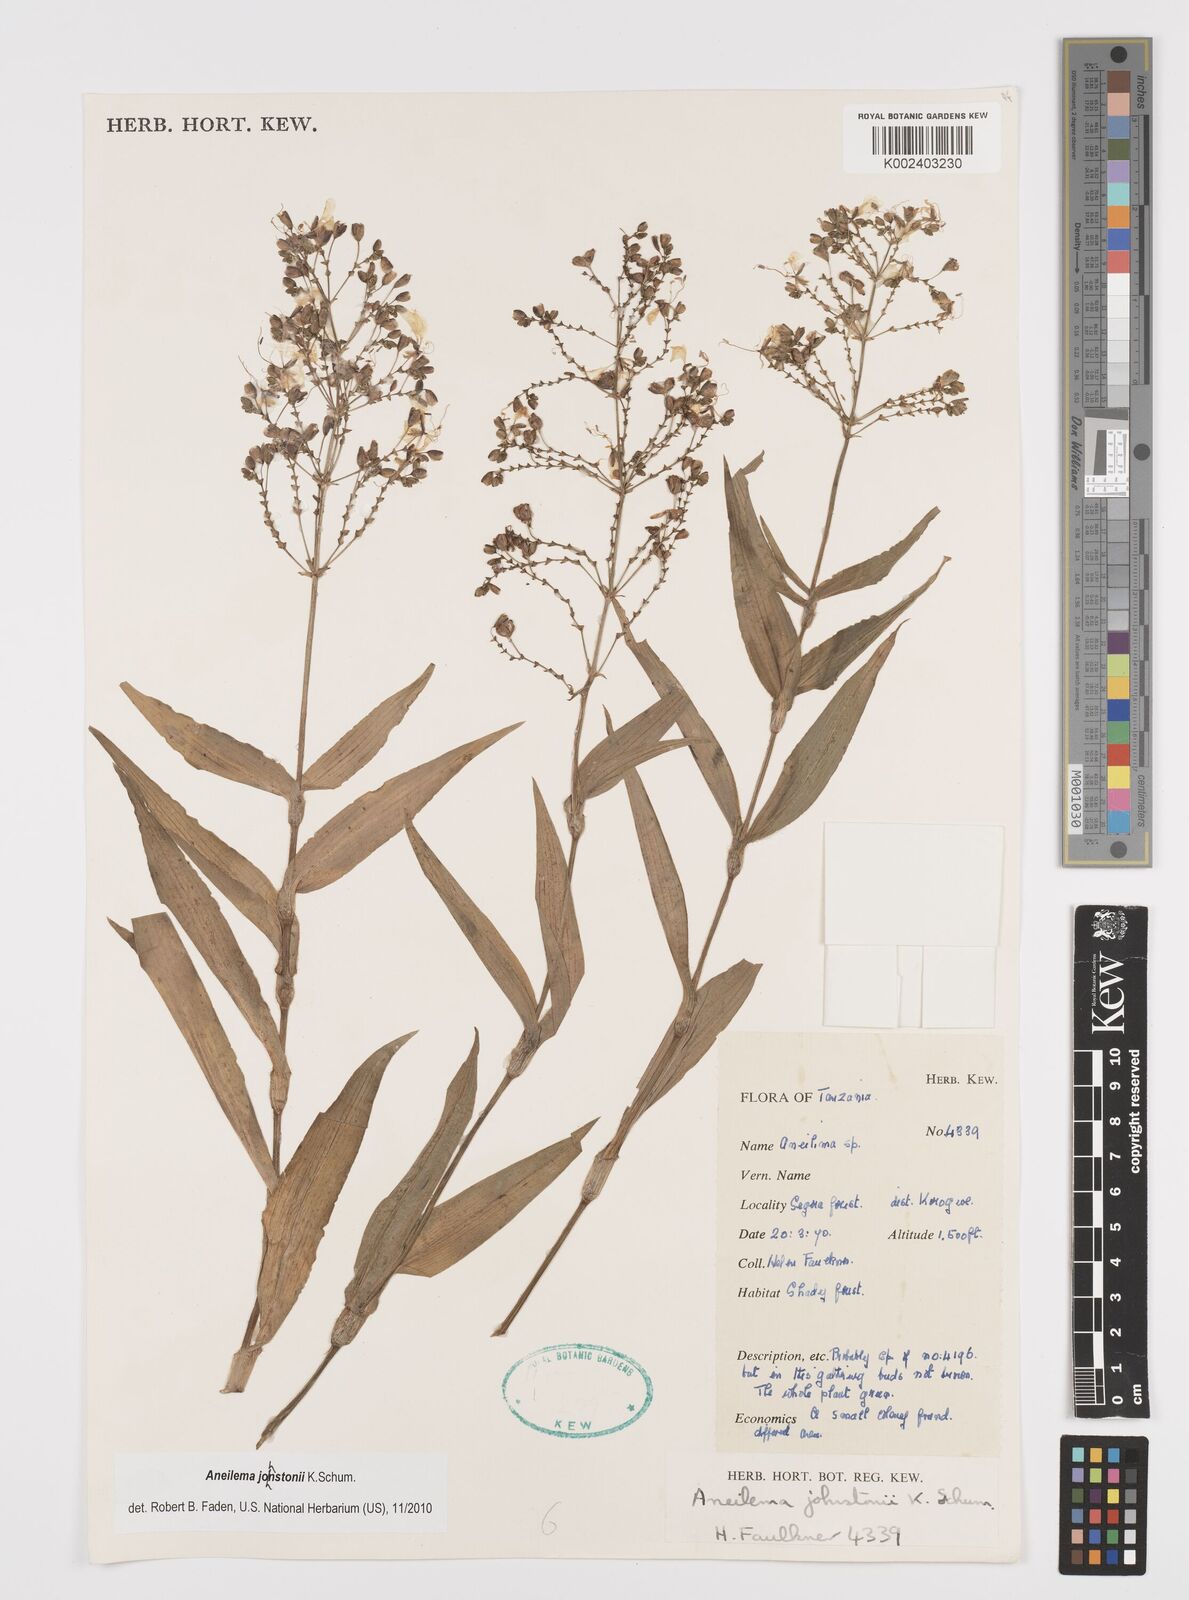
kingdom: Plantae
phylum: Tracheophyta
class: Liliopsida
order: Commelinales
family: Commelinaceae
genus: Aneilema
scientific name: Aneilema johnstonii
